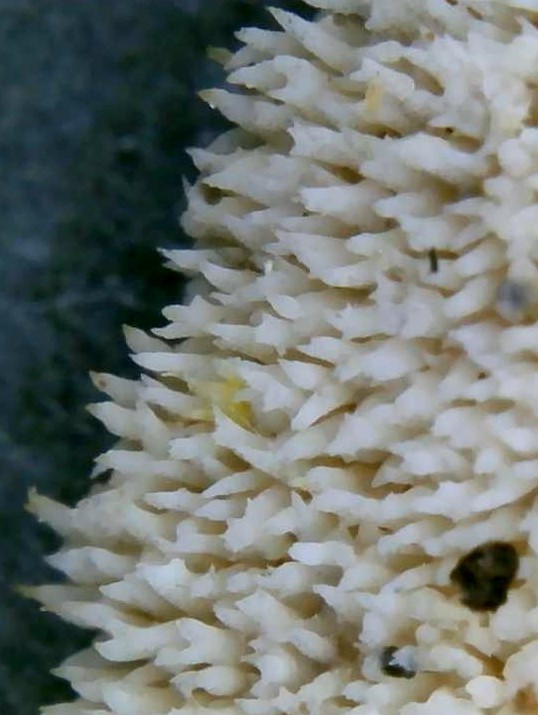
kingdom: Fungi
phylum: Basidiomycota
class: Agaricomycetes
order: Polyporales
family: Meruliaceae
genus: Mycoacia
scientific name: Mycoacia
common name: vokspig
